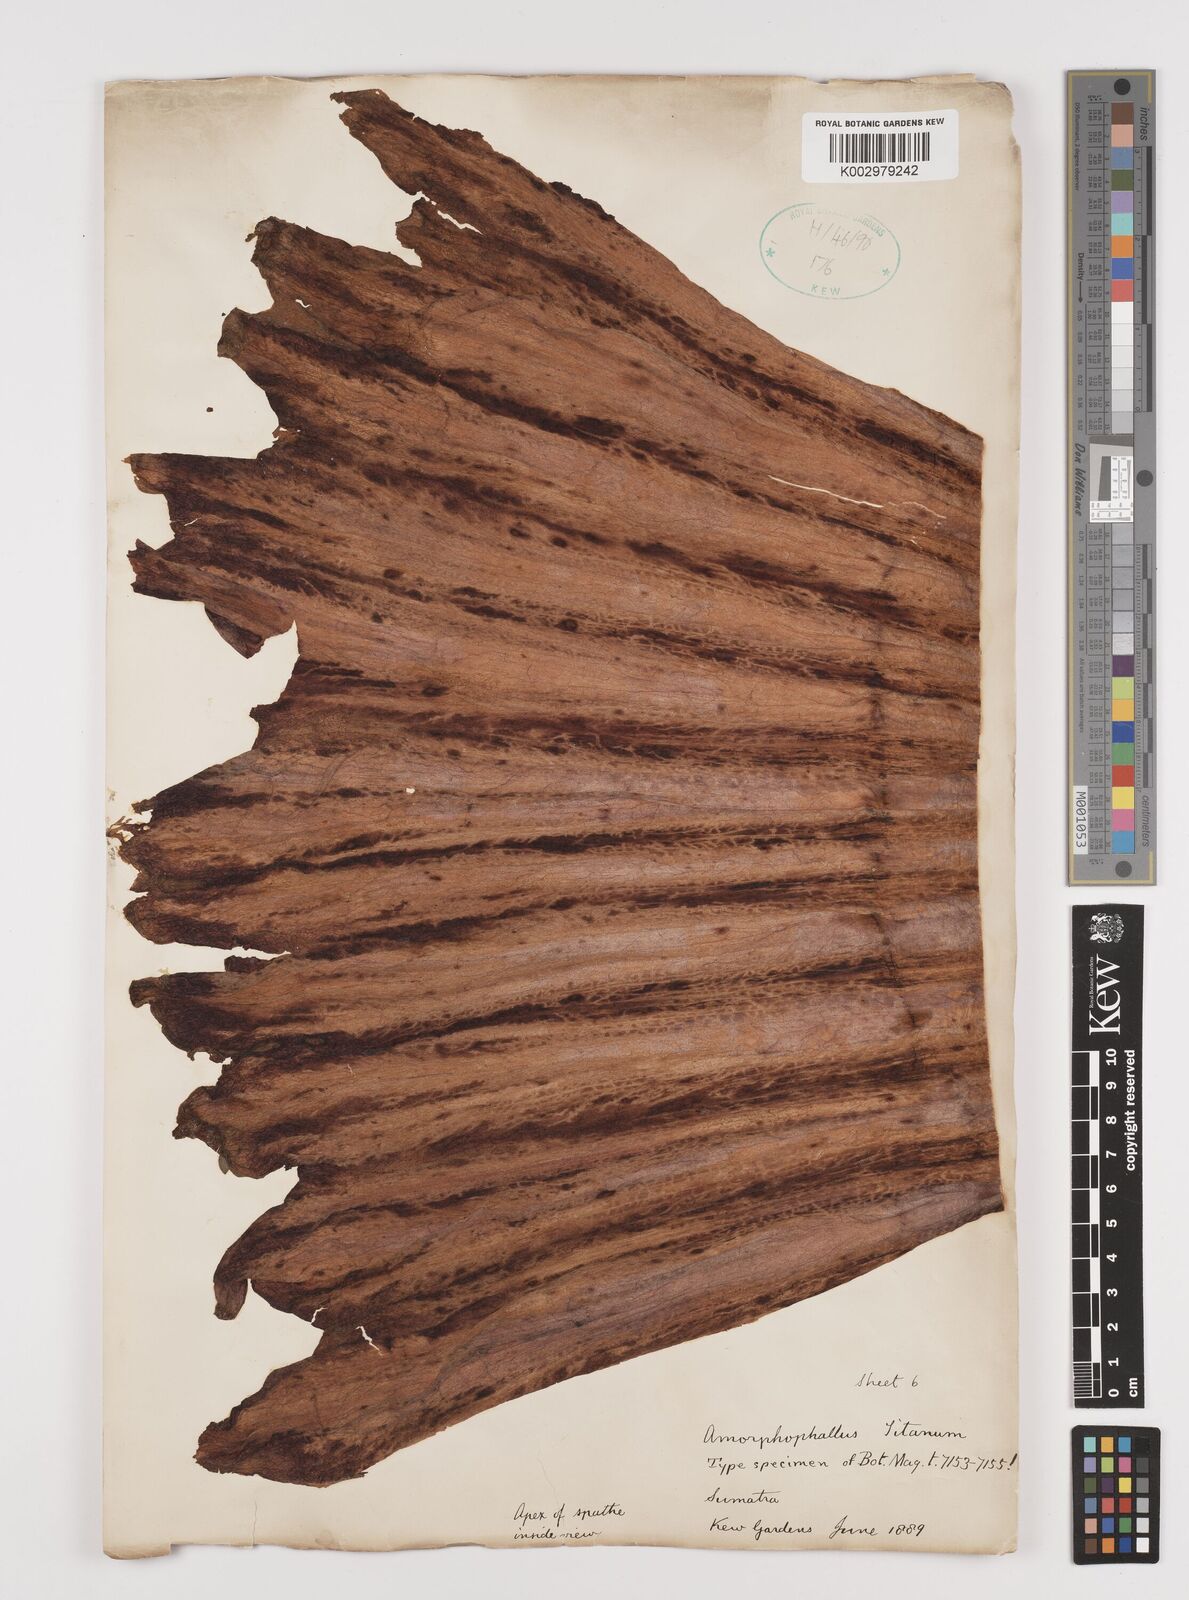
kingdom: Plantae
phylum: Tracheophyta
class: Liliopsida
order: Alismatales
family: Araceae
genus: Amorphophallus
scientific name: Amorphophallus titanum
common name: Titan arum
